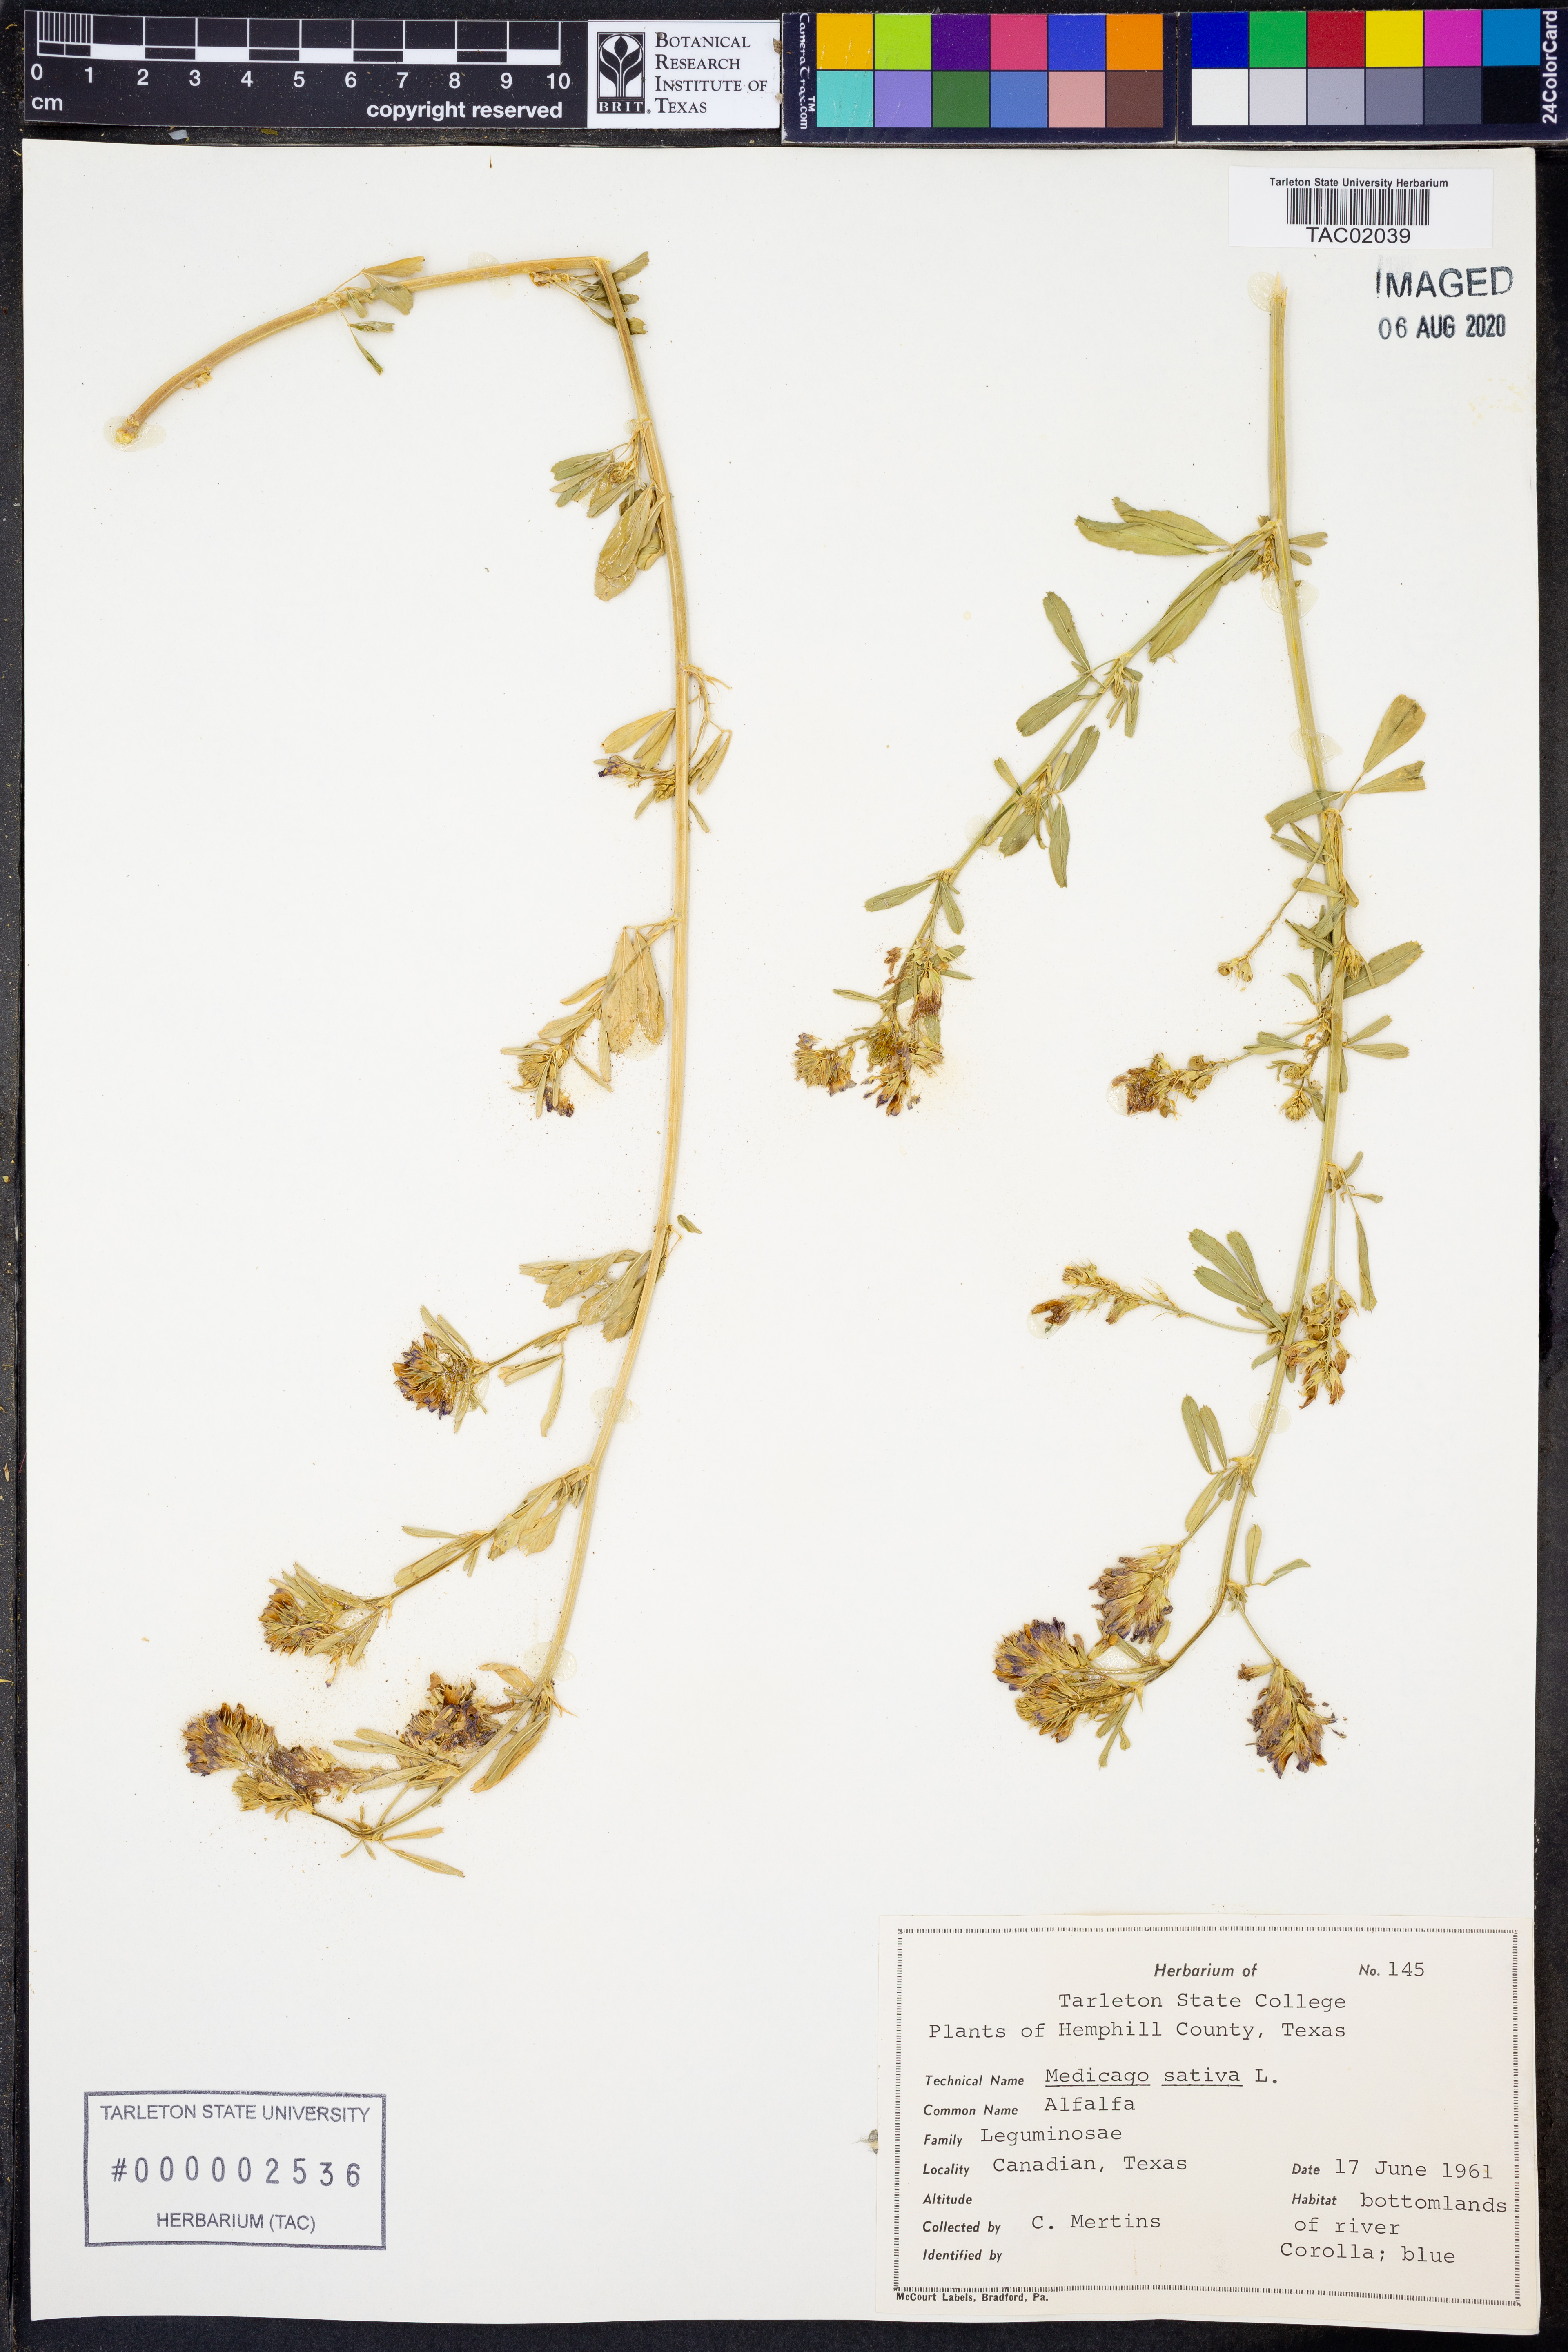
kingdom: Plantae
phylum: Tracheophyta
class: Magnoliopsida
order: Fabales
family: Fabaceae
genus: Medicago
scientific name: Medicago sativa
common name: Alfalfa
